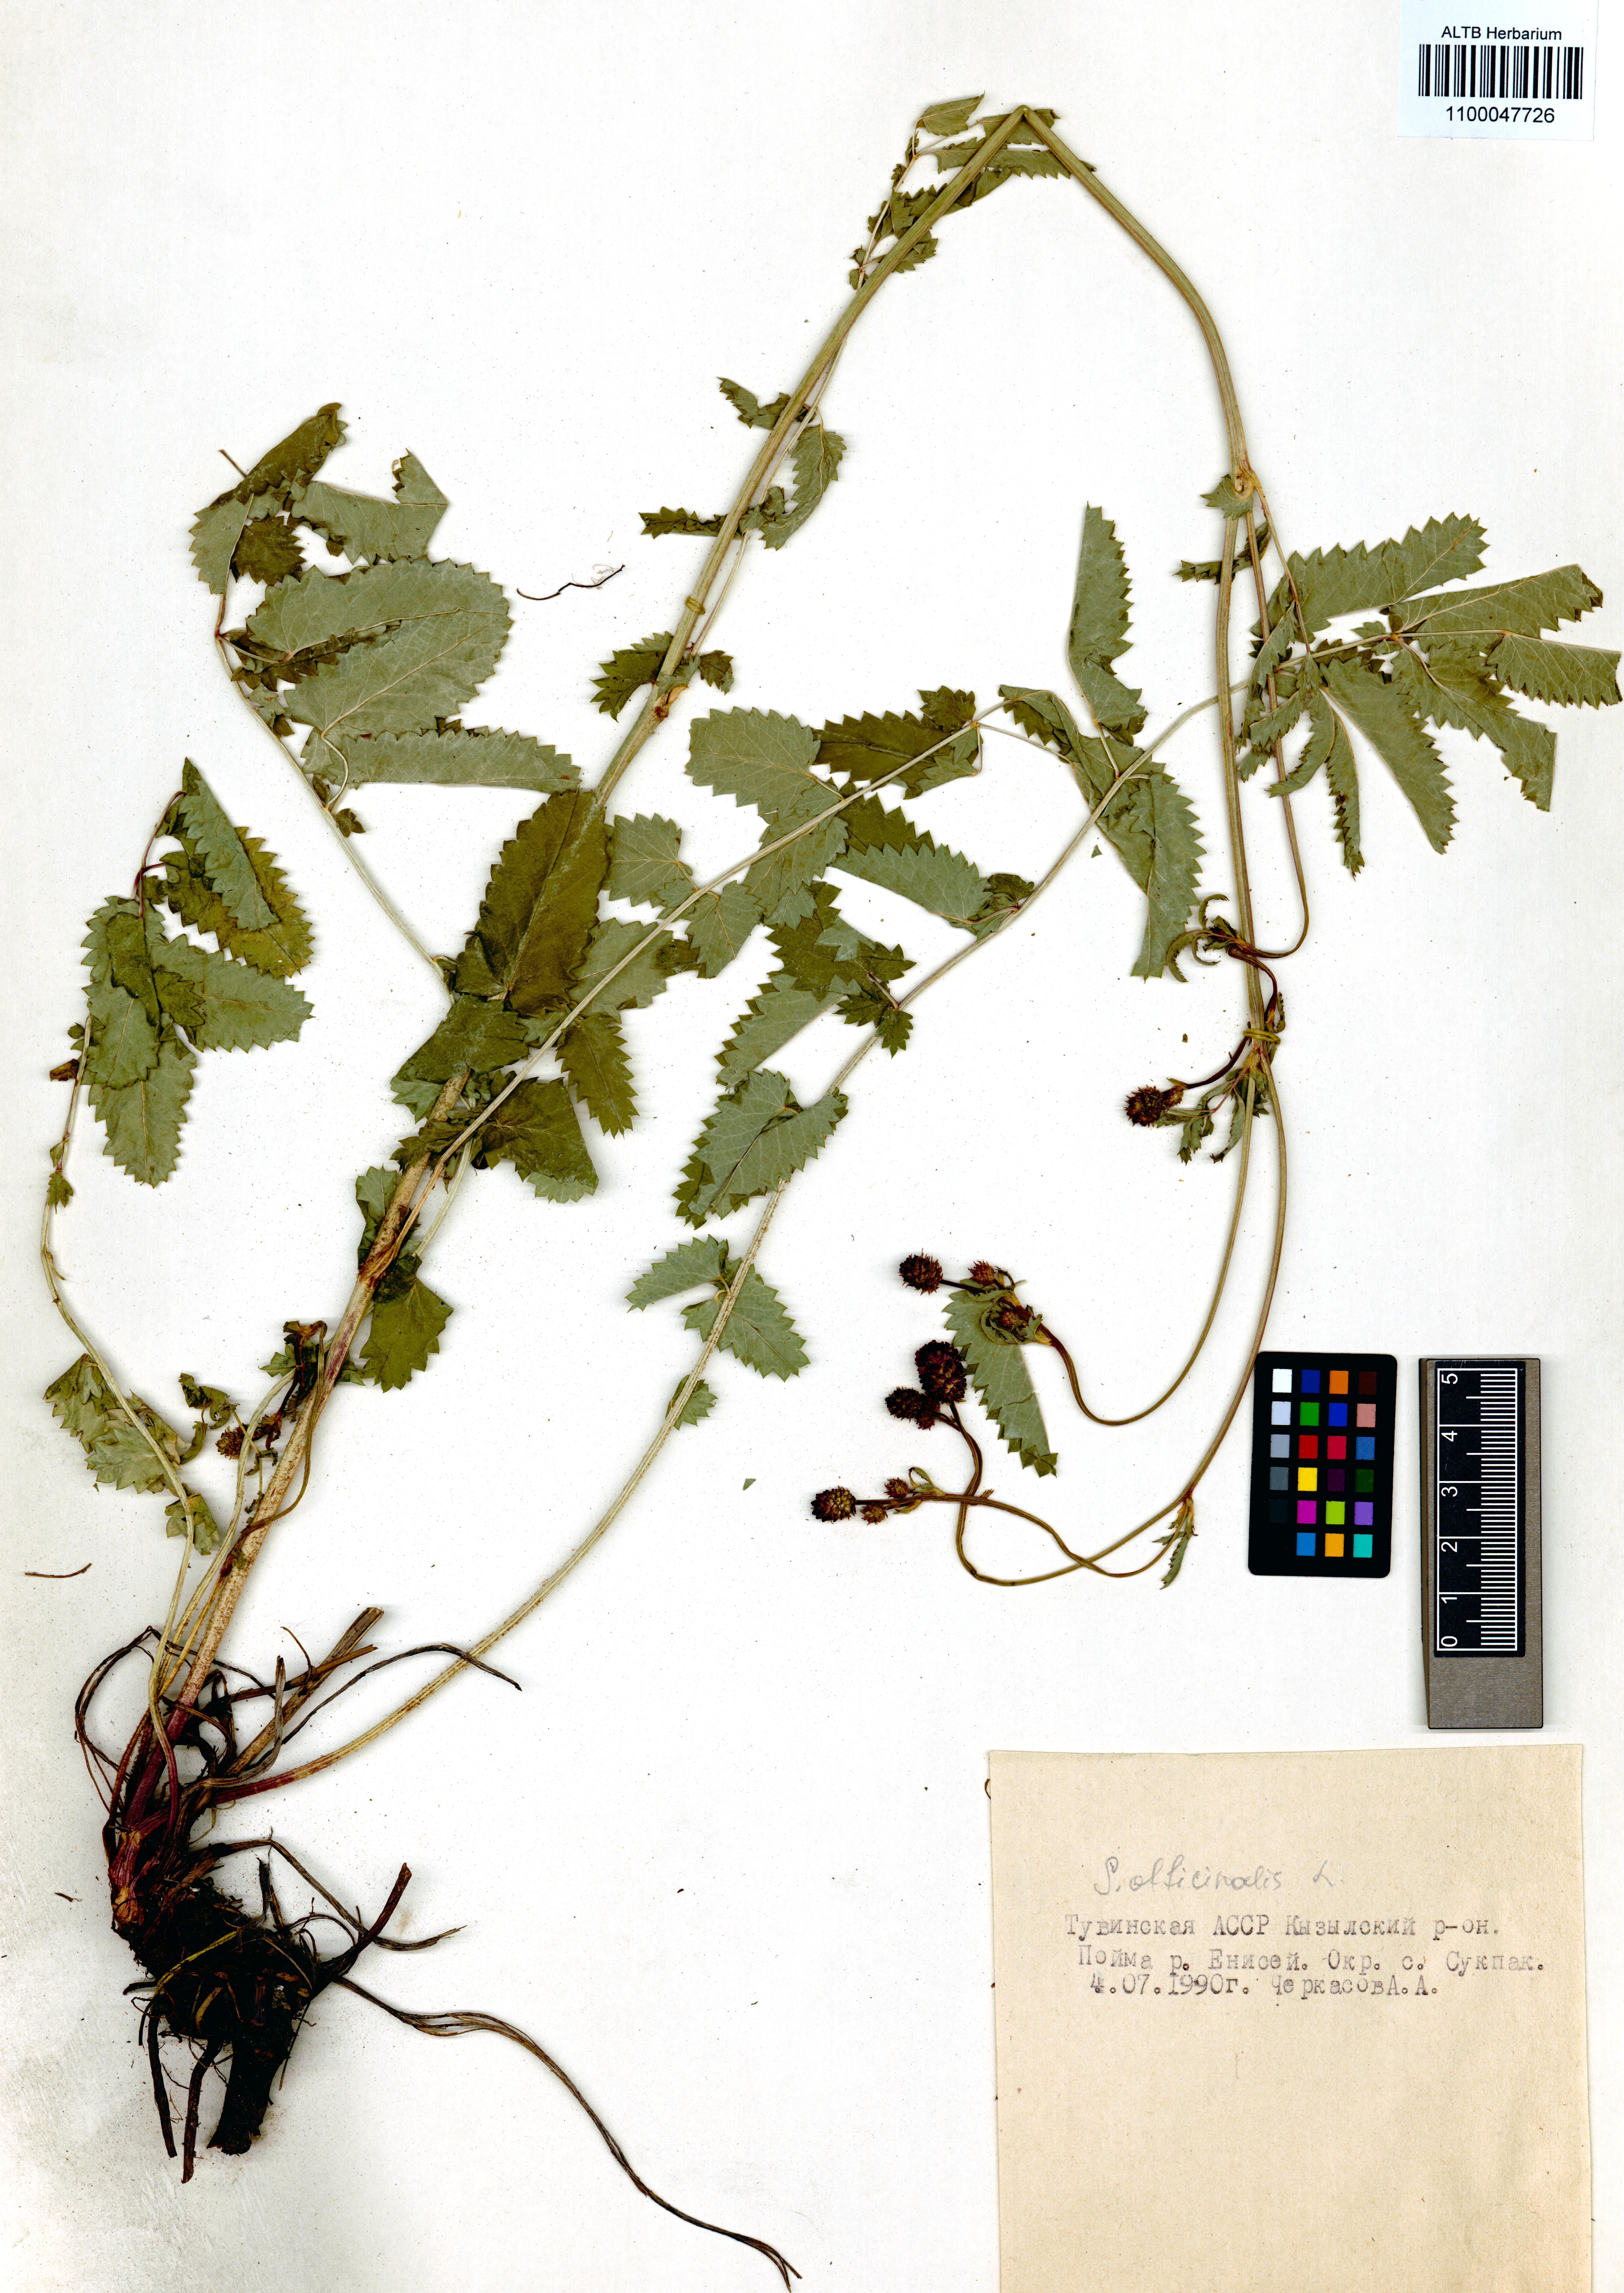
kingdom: Plantae
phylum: Tracheophyta
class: Magnoliopsida
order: Rosales
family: Rosaceae
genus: Sanguisorba
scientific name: Sanguisorba officinalis
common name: Great burnet
